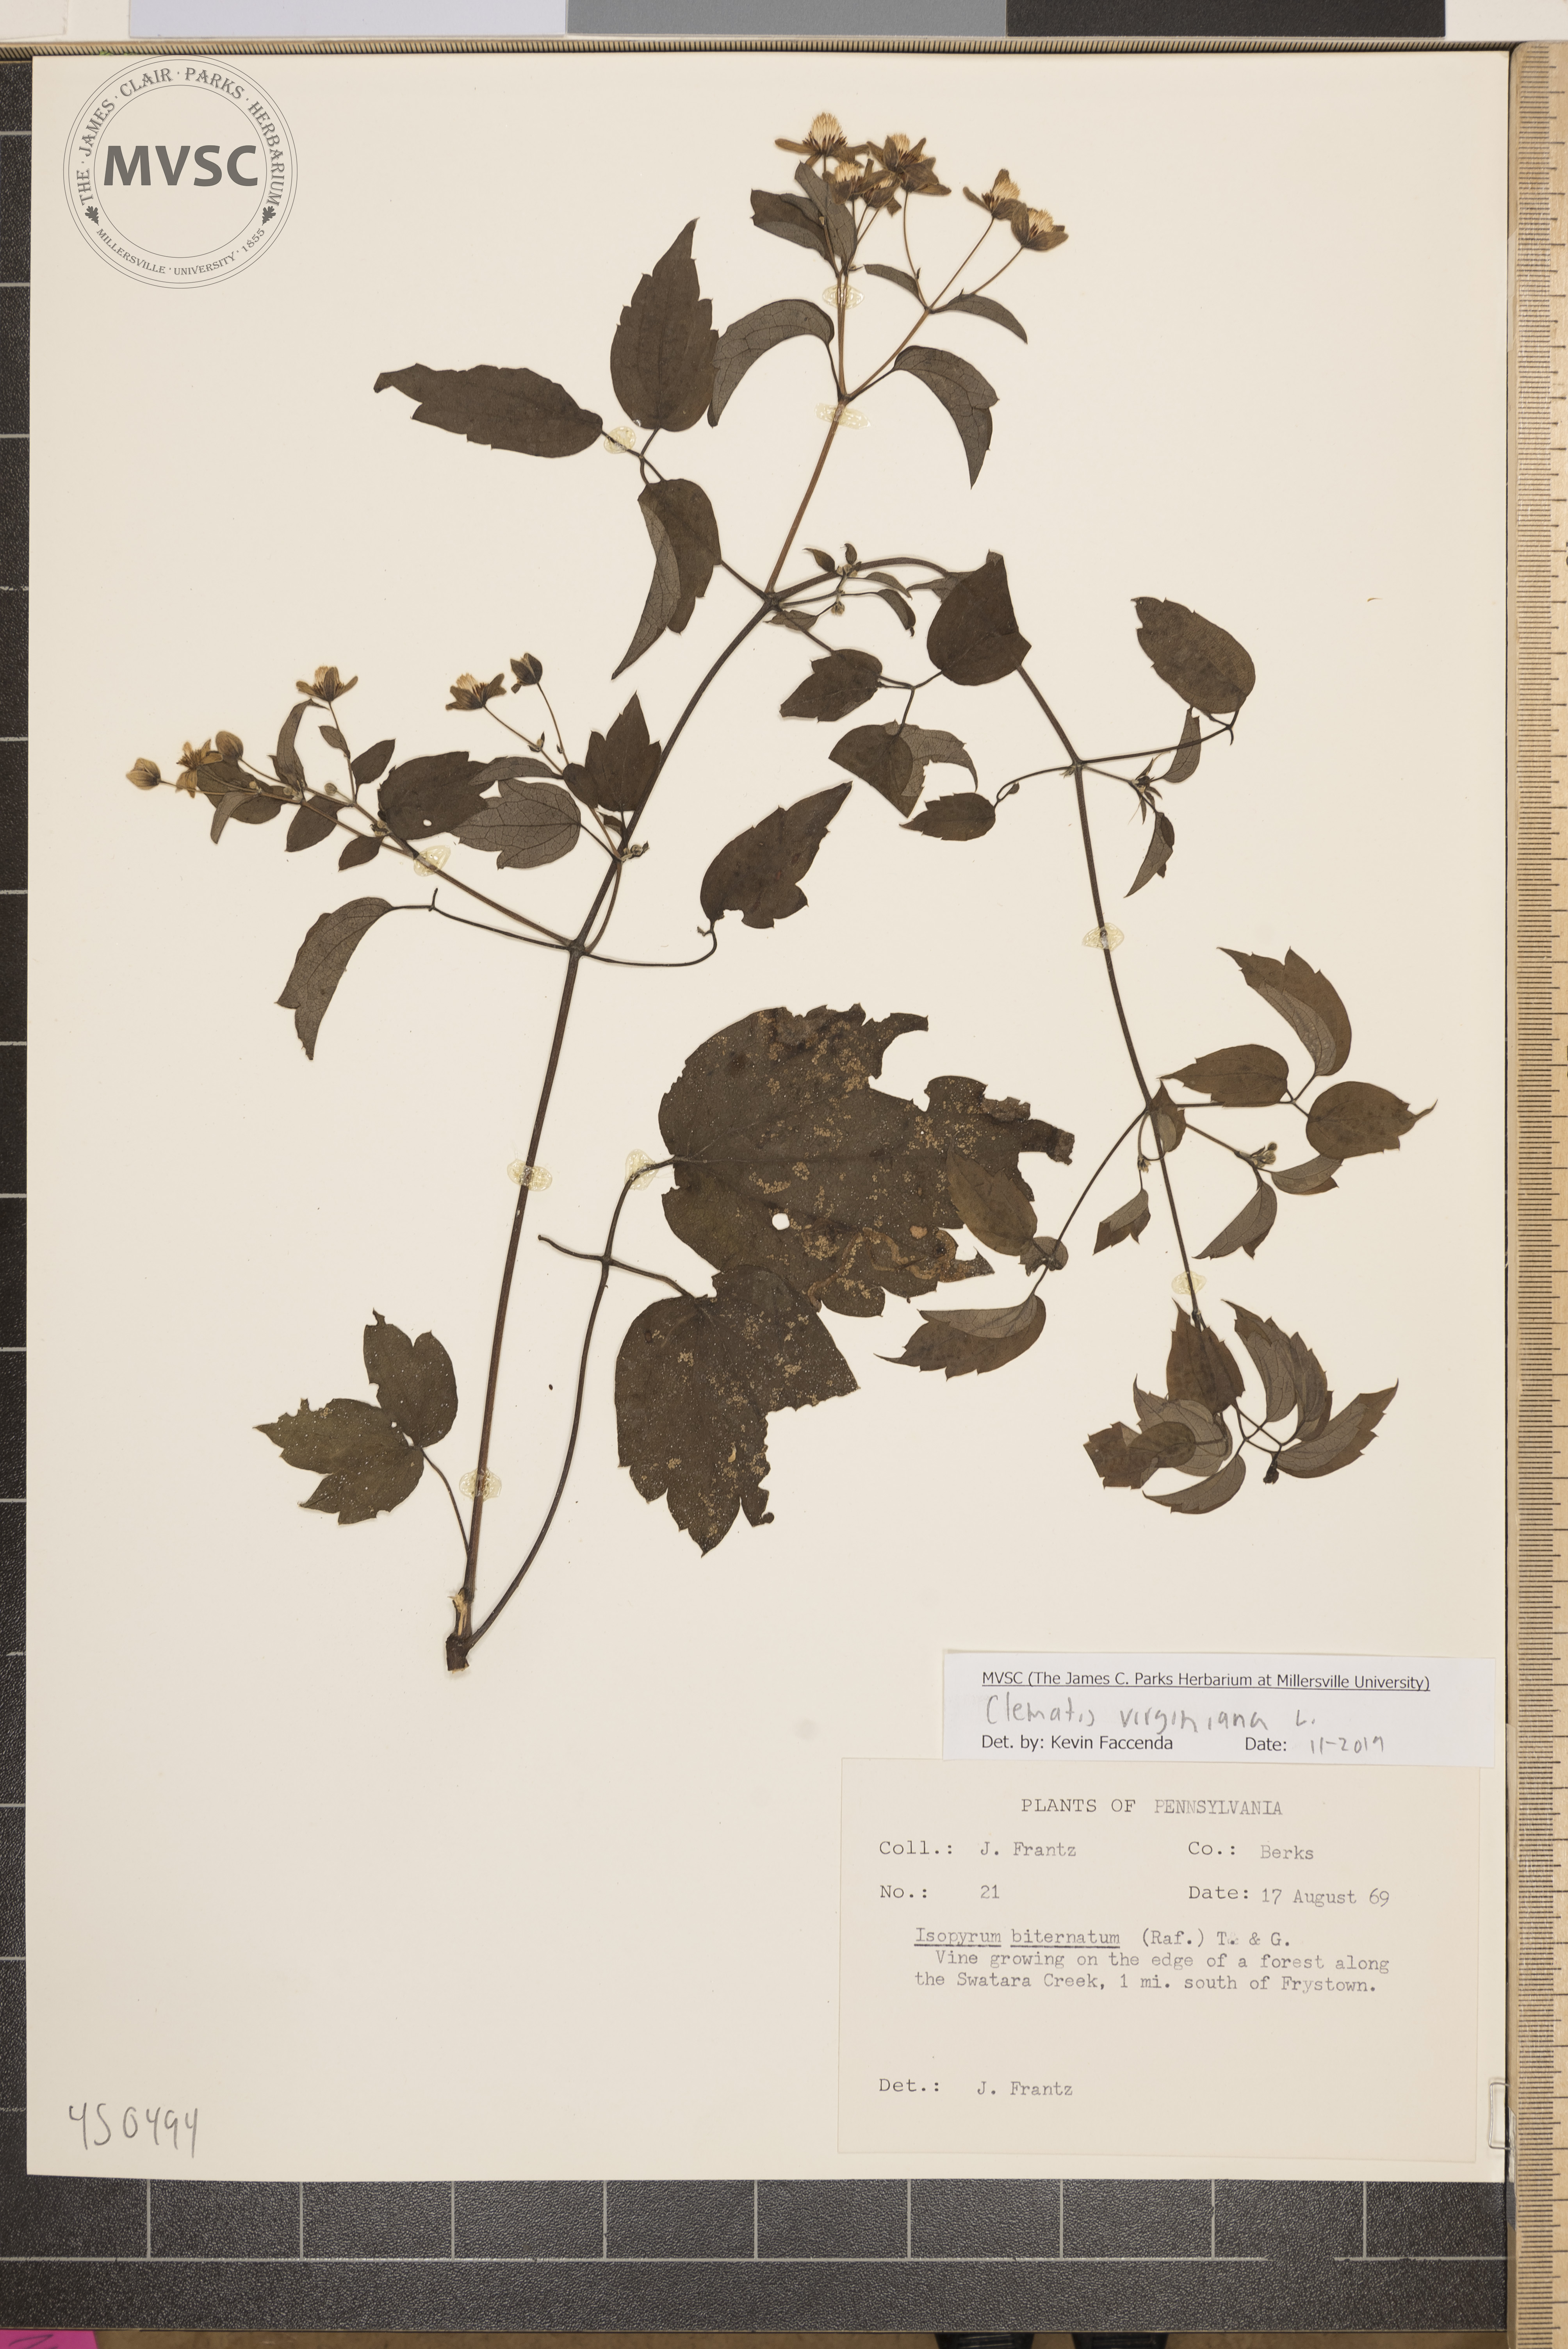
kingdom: Plantae
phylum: Tracheophyta
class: Magnoliopsida
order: Ranunculales
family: Ranunculaceae
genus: Clematis
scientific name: Clematis virginiana
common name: Virgin's-bower
